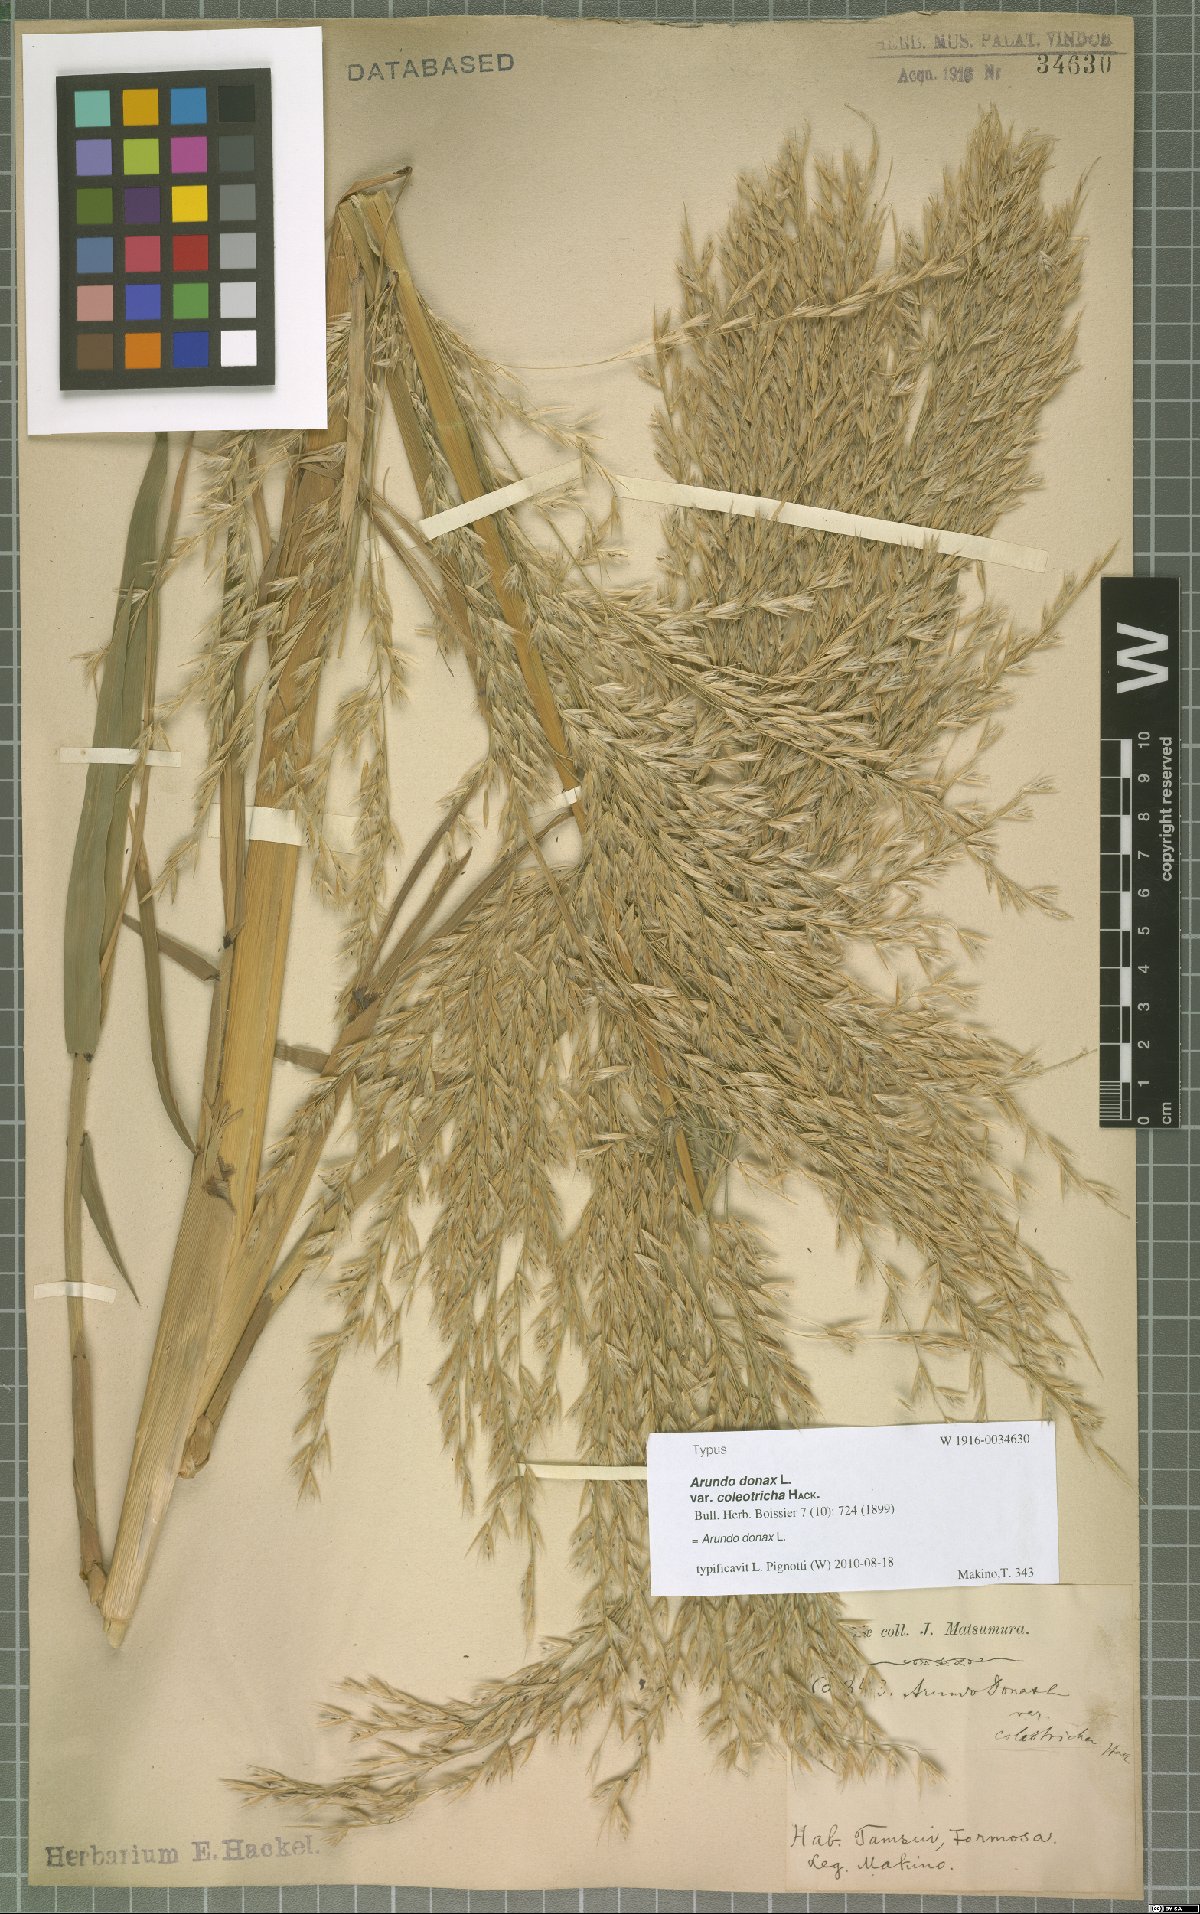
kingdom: Plantae
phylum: Tracheophyta
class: Liliopsida
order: Poales
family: Poaceae
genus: Arundo
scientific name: Arundo donax
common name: Giant reed
